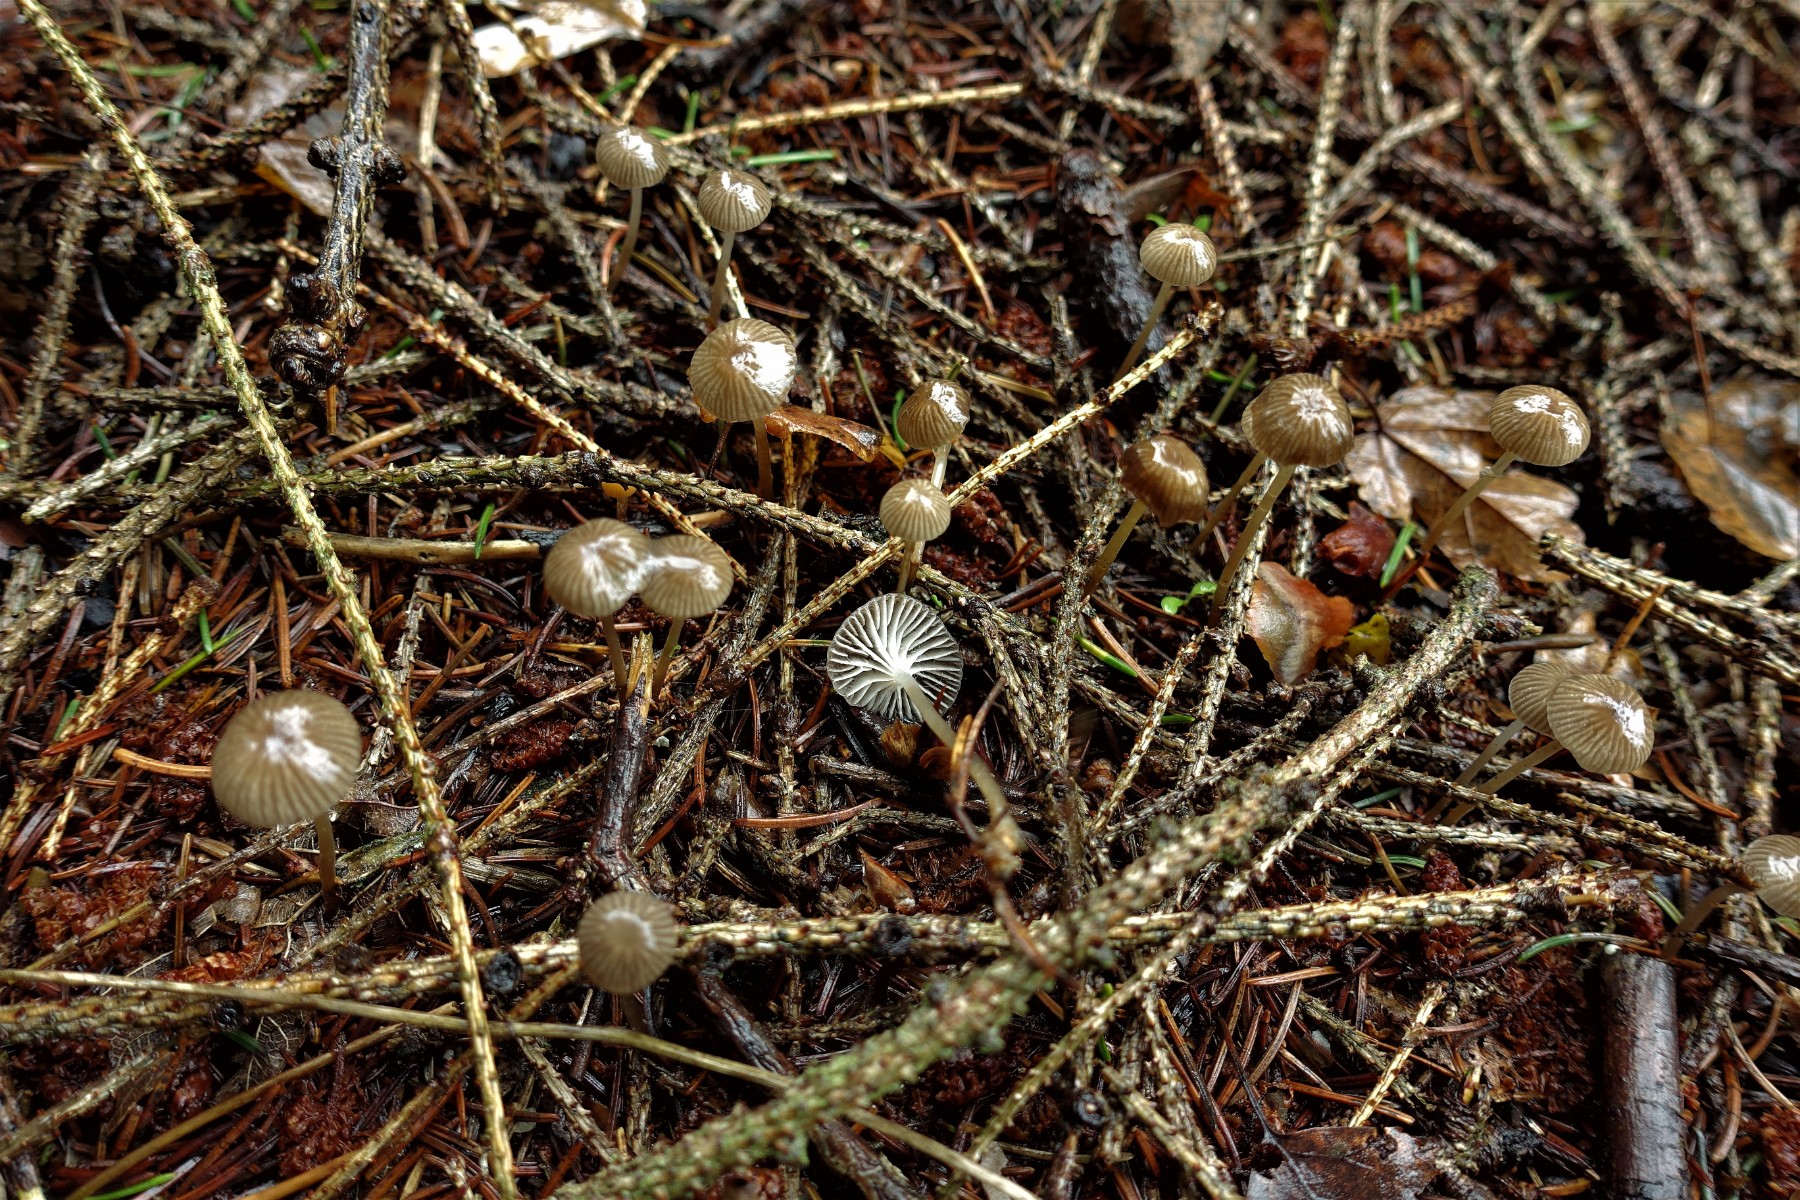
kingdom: Fungi
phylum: Basidiomycota
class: Agaricomycetes
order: Agaricales
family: Mycenaceae
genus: Mycena
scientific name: Mycena vulgaris
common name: klæbrig huesvamp
